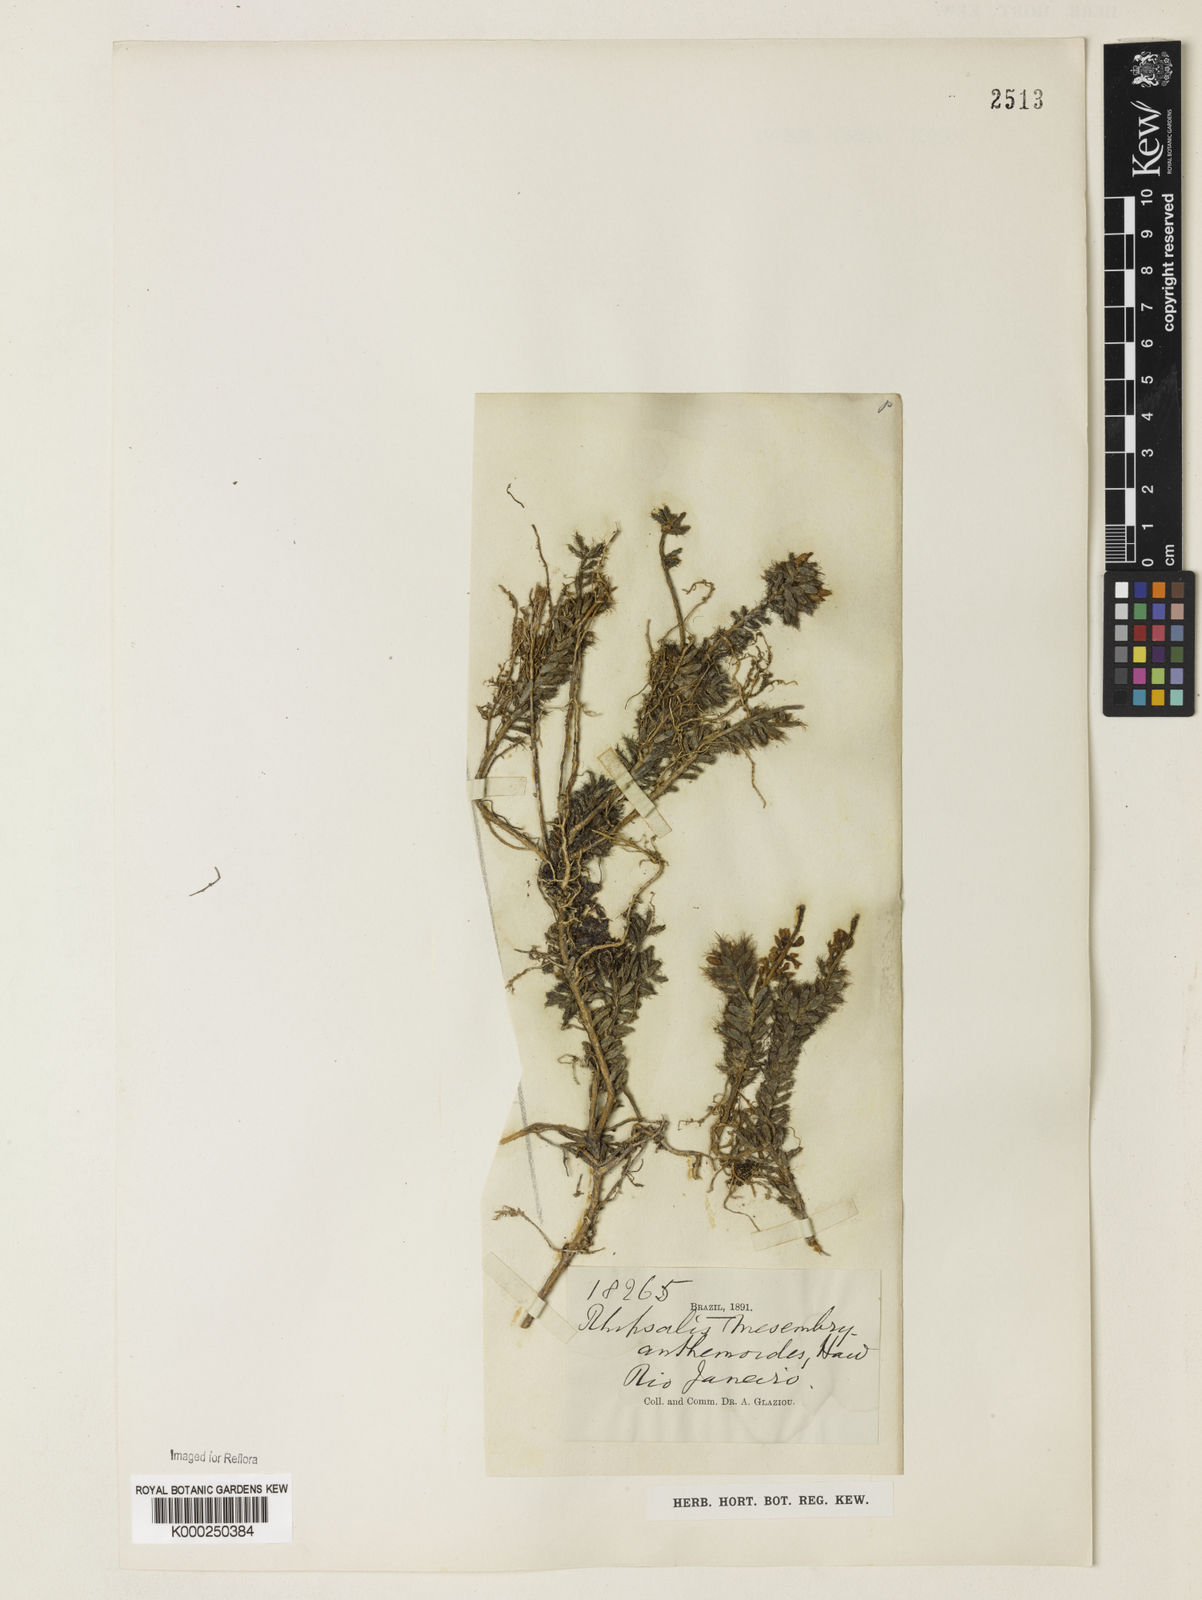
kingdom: Plantae
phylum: Tracheophyta
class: Magnoliopsida
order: Caryophyllales
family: Cactaceae
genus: Rhipsalis
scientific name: Rhipsalis
